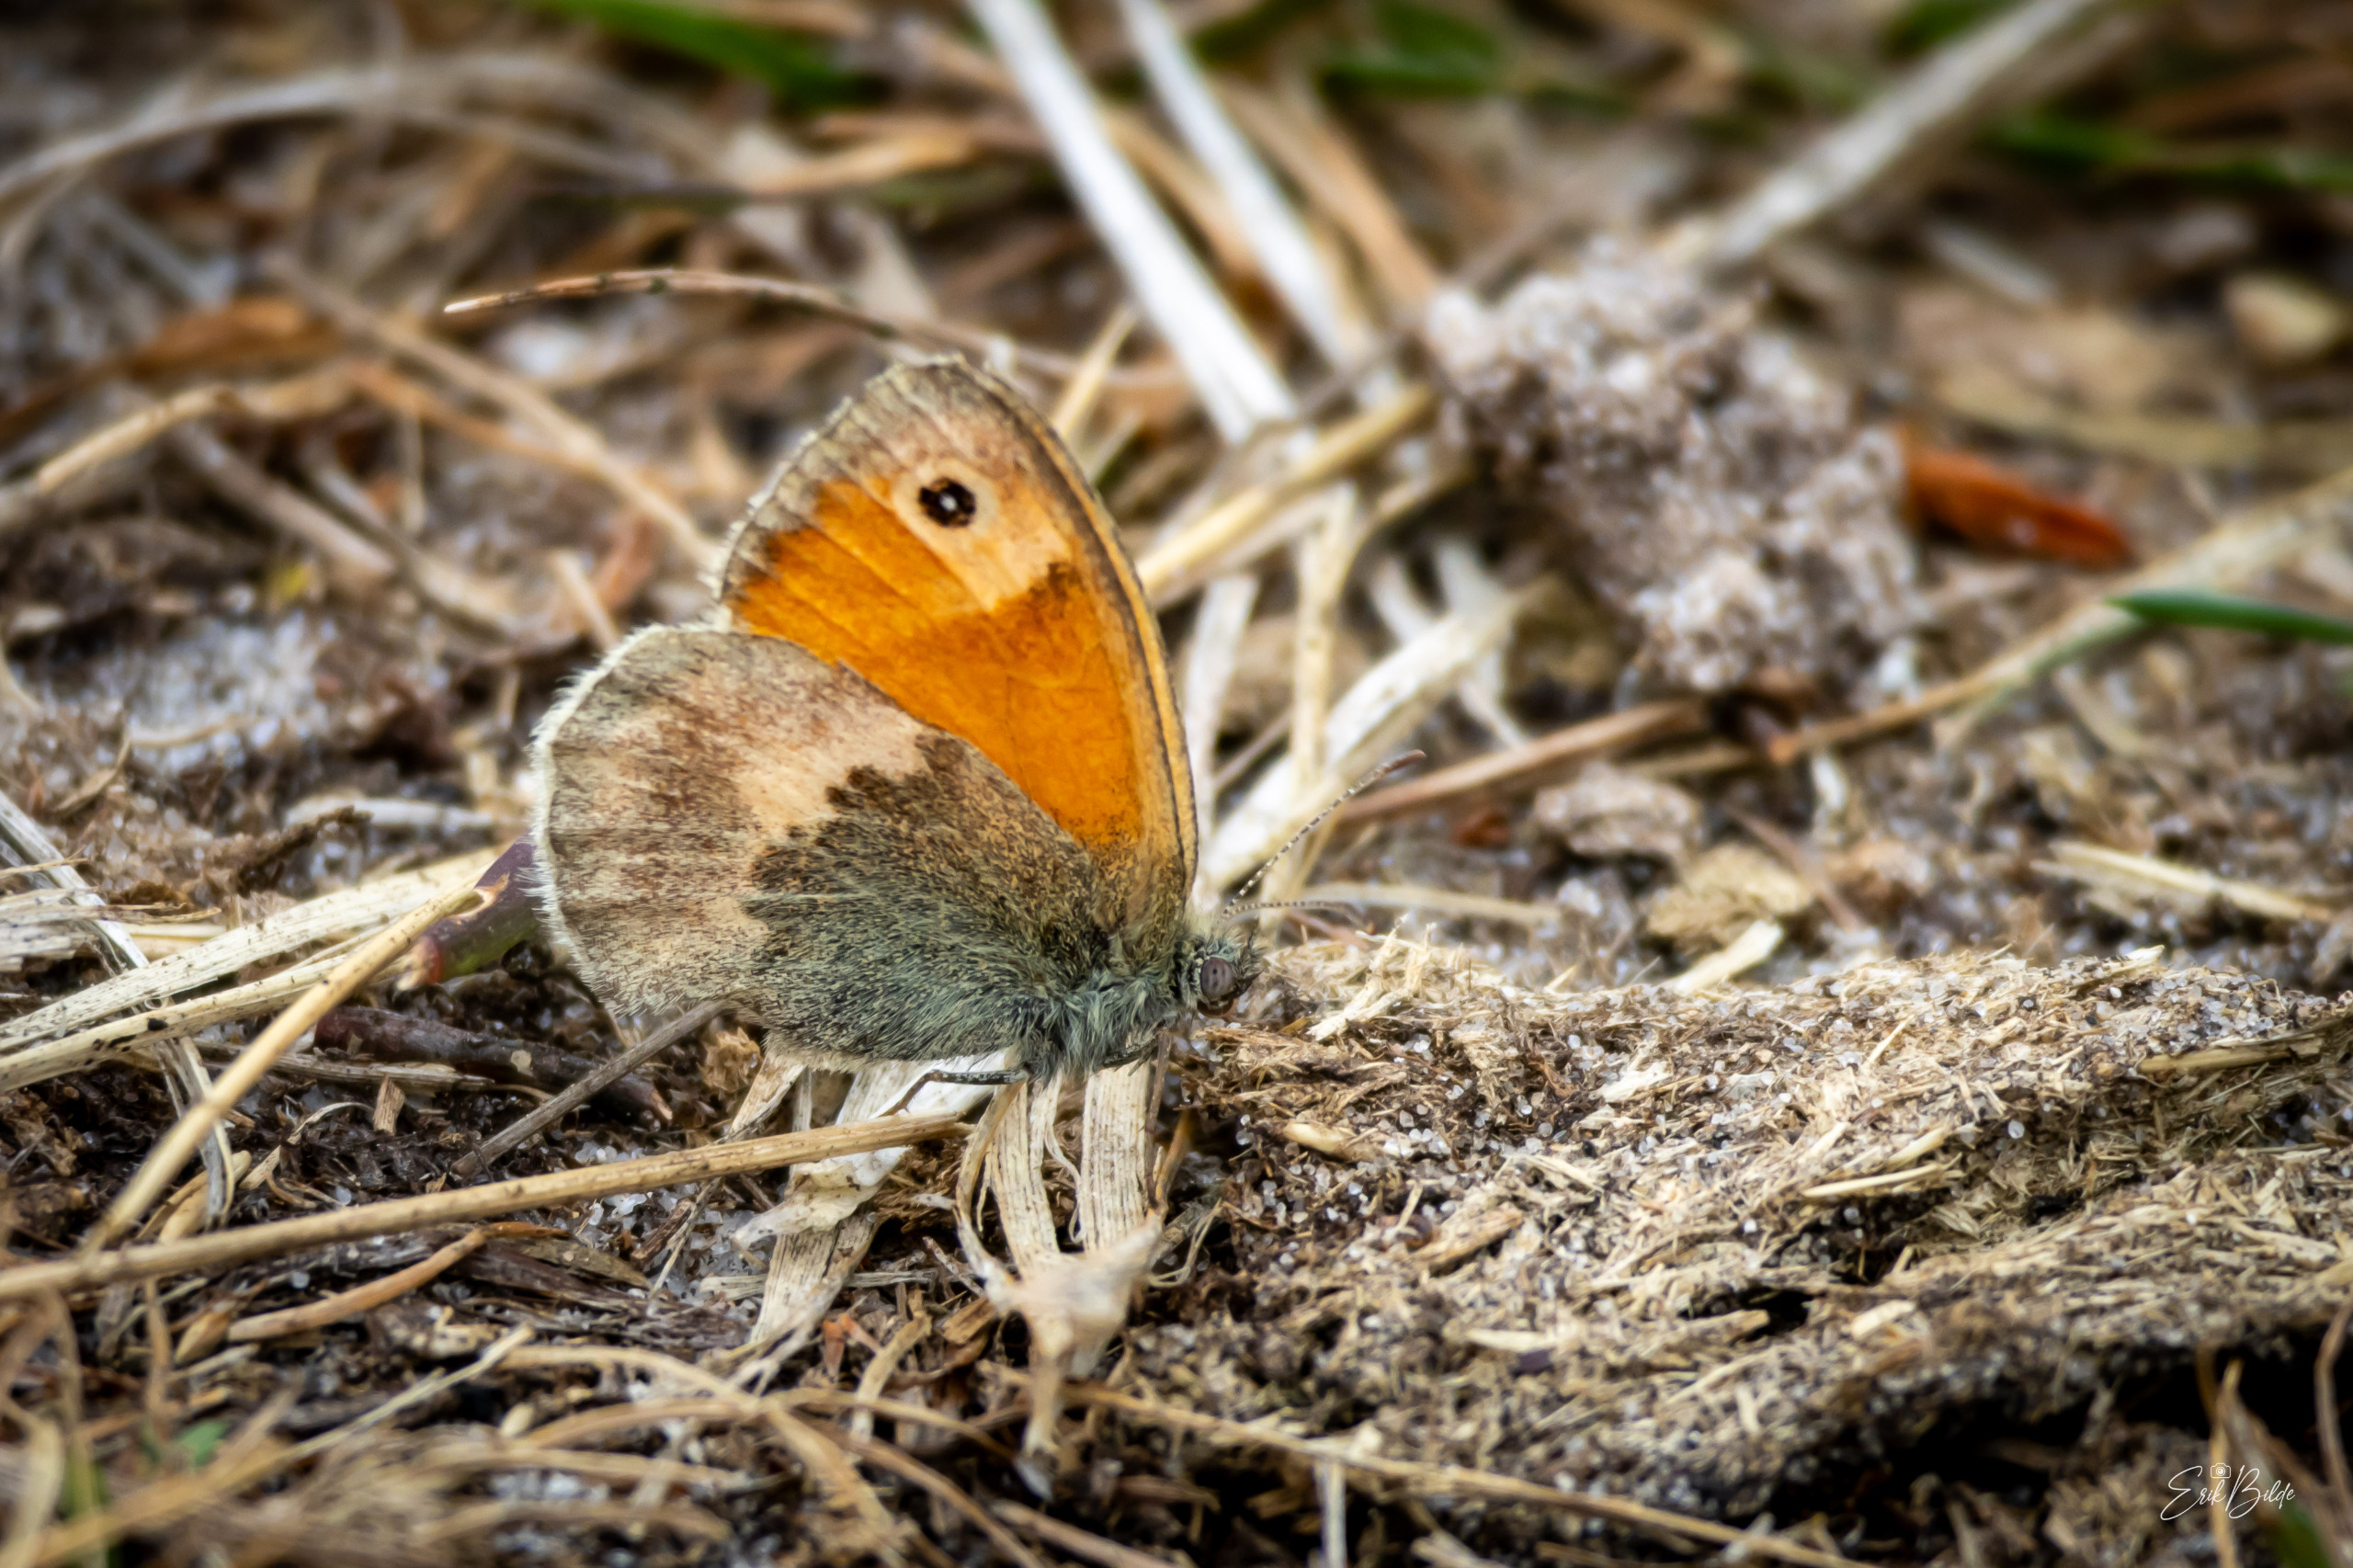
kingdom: Animalia
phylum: Arthropoda
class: Insecta
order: Lepidoptera
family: Nymphalidae
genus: Coenonympha
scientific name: Coenonympha pamphilus
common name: Okkergul randøje
